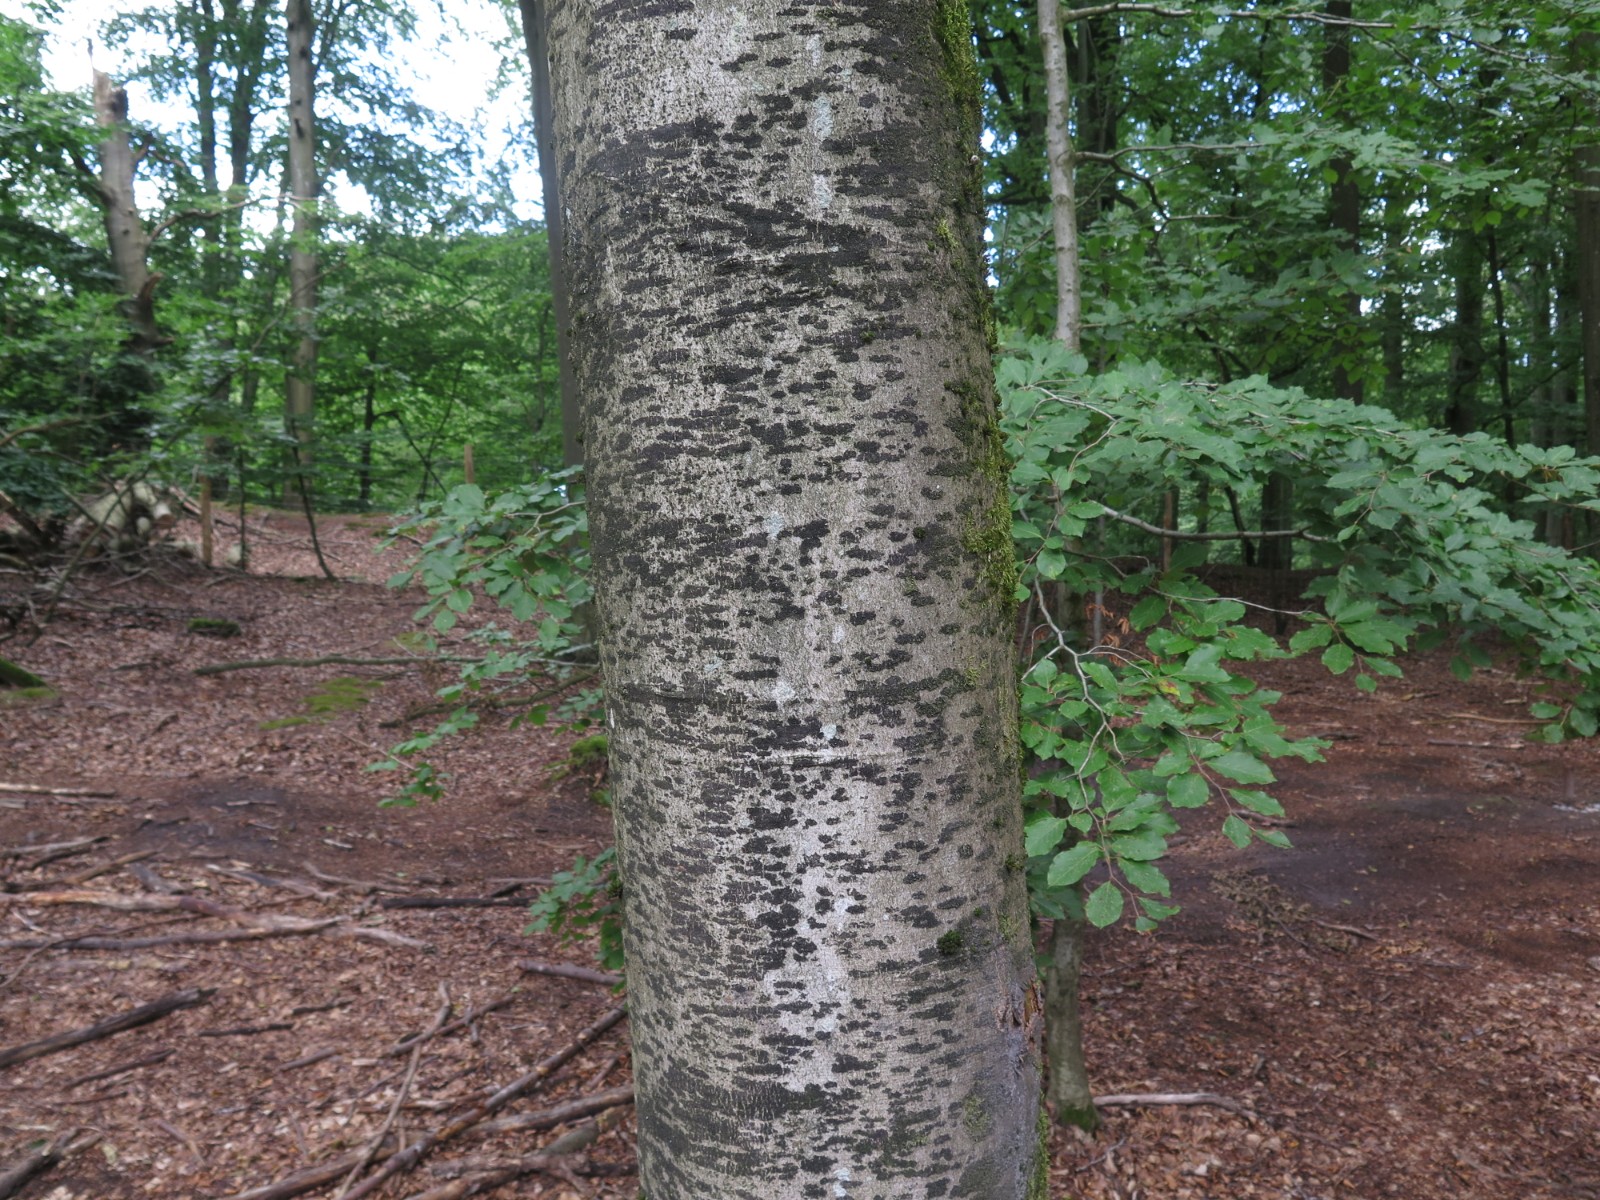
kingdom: Fungi
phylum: Ascomycota
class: Leotiomycetes
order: Rhytismatales
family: Ascodichaenaceae
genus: Ascodichaena
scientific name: Ascodichaena rugosa
